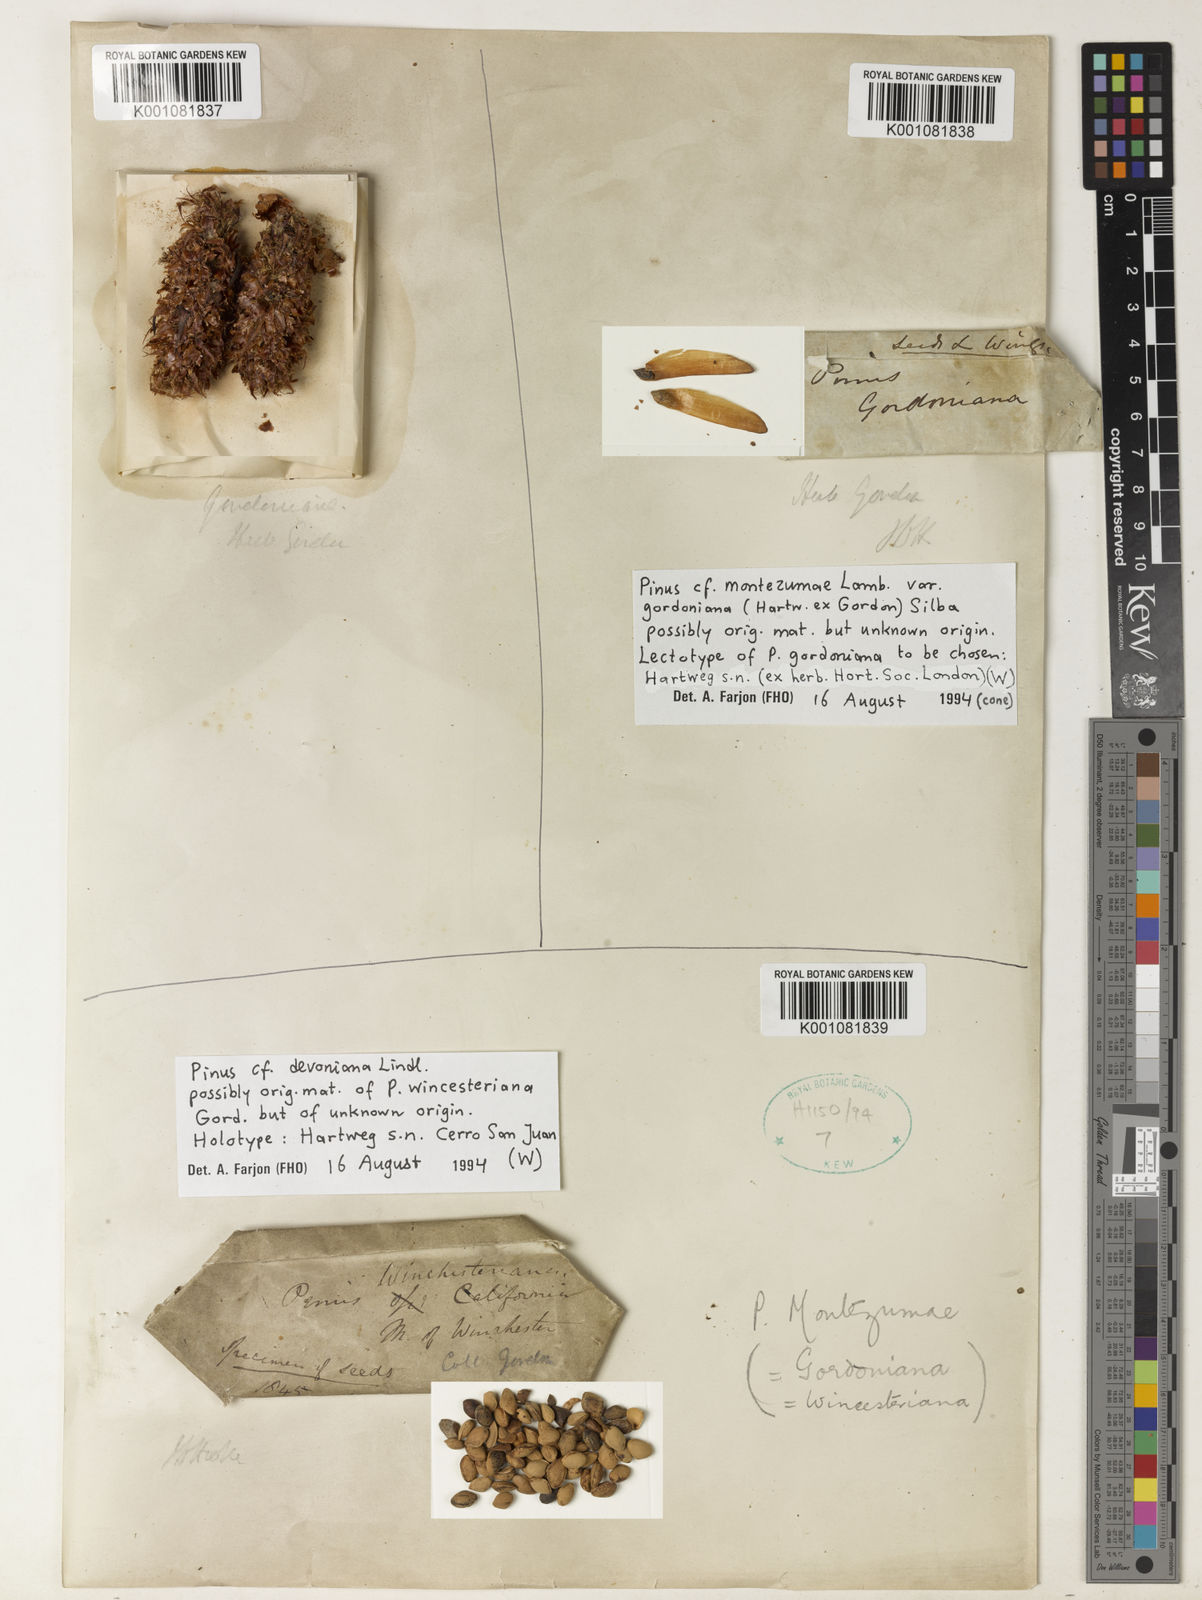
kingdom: Plantae
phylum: Tracheophyta
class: Pinopsida
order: Pinales
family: Pinaceae
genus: Pinus
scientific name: Pinus montezumae
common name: Montezuma pine
